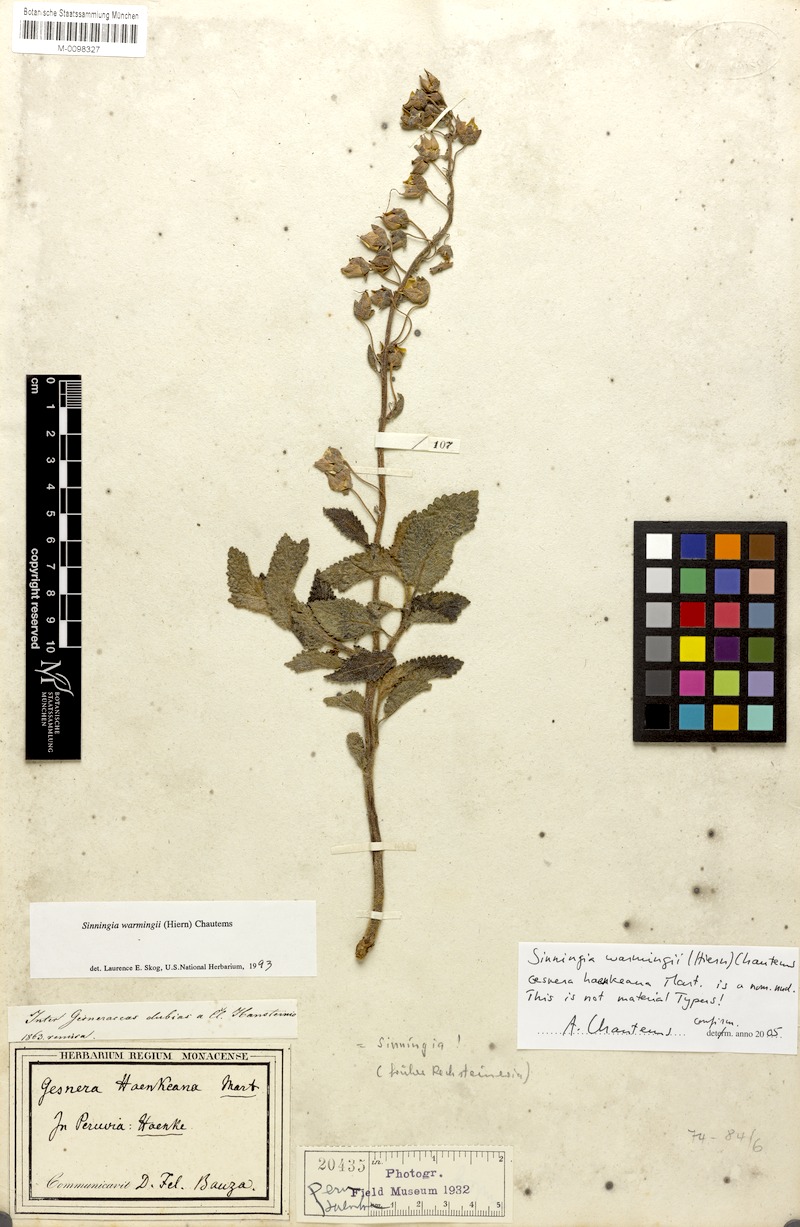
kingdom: Plantae
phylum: Tracheophyta
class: Magnoliopsida
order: Lamiales
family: Gesneriaceae
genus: Sinningia
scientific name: Sinningia warmingii
